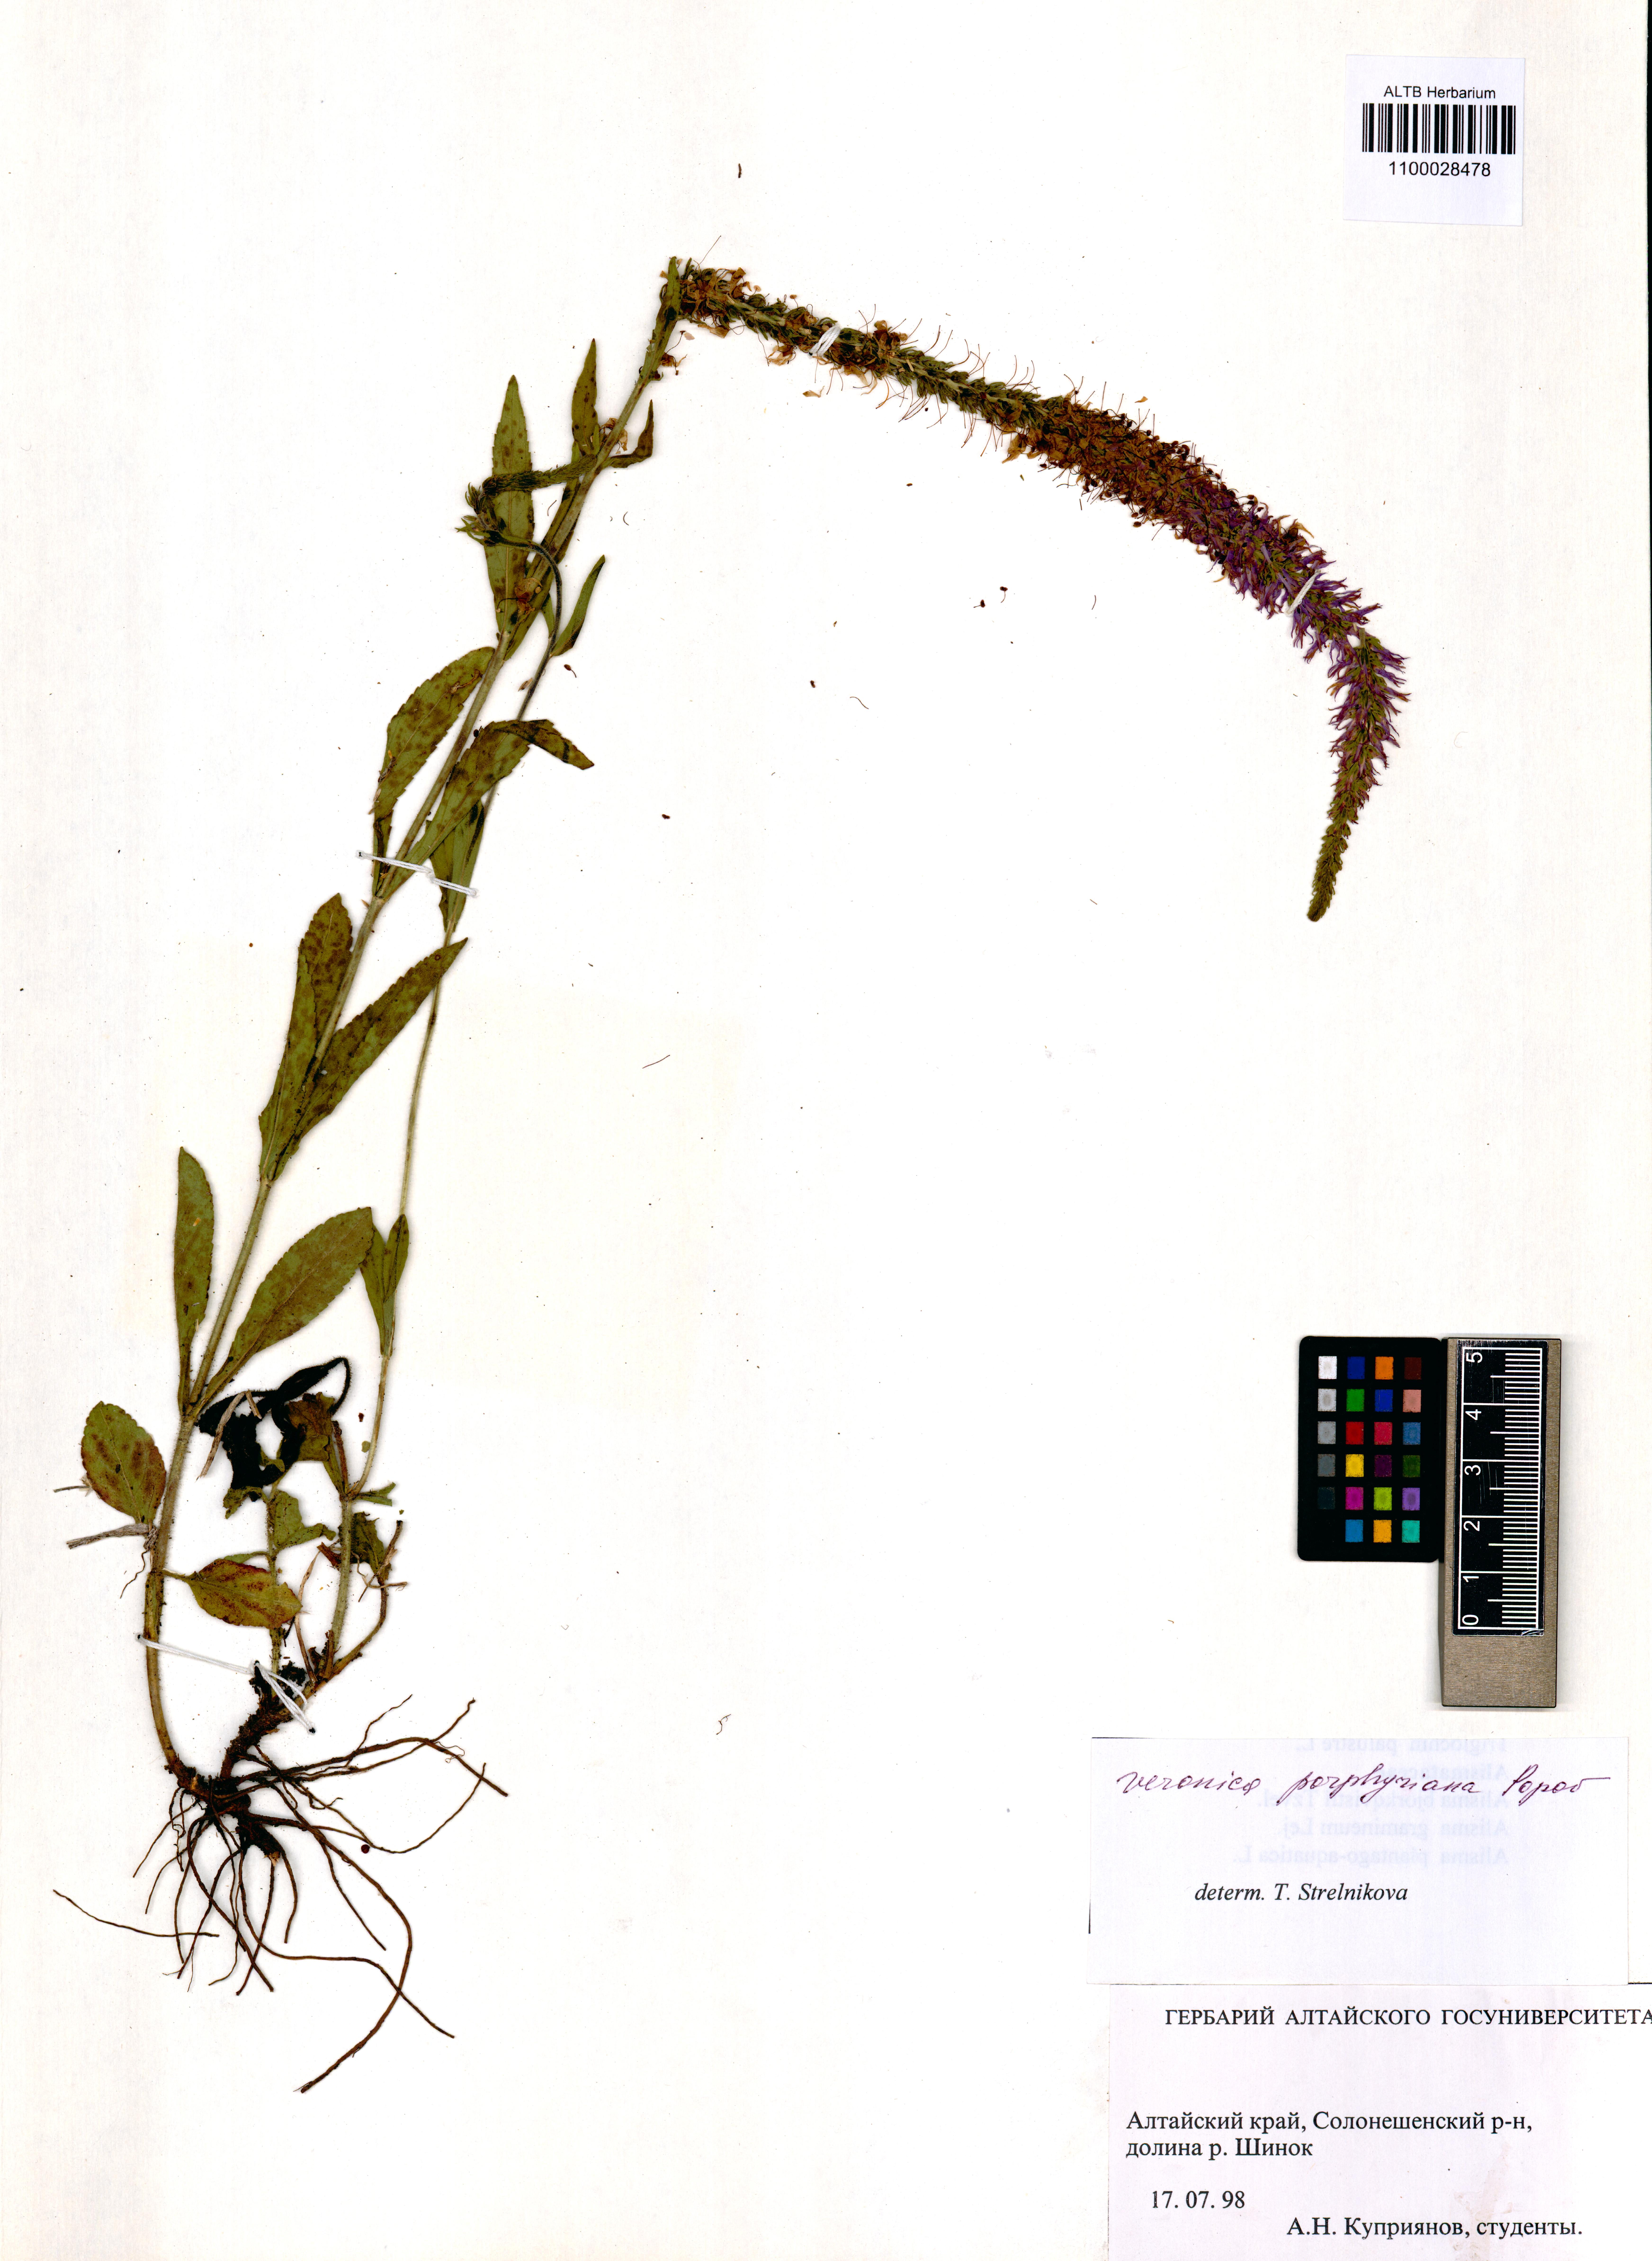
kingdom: Plantae
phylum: Tracheophyta
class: Magnoliopsida
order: Lamiales
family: Plantaginaceae
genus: Veronica
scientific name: Veronica porphyriana
